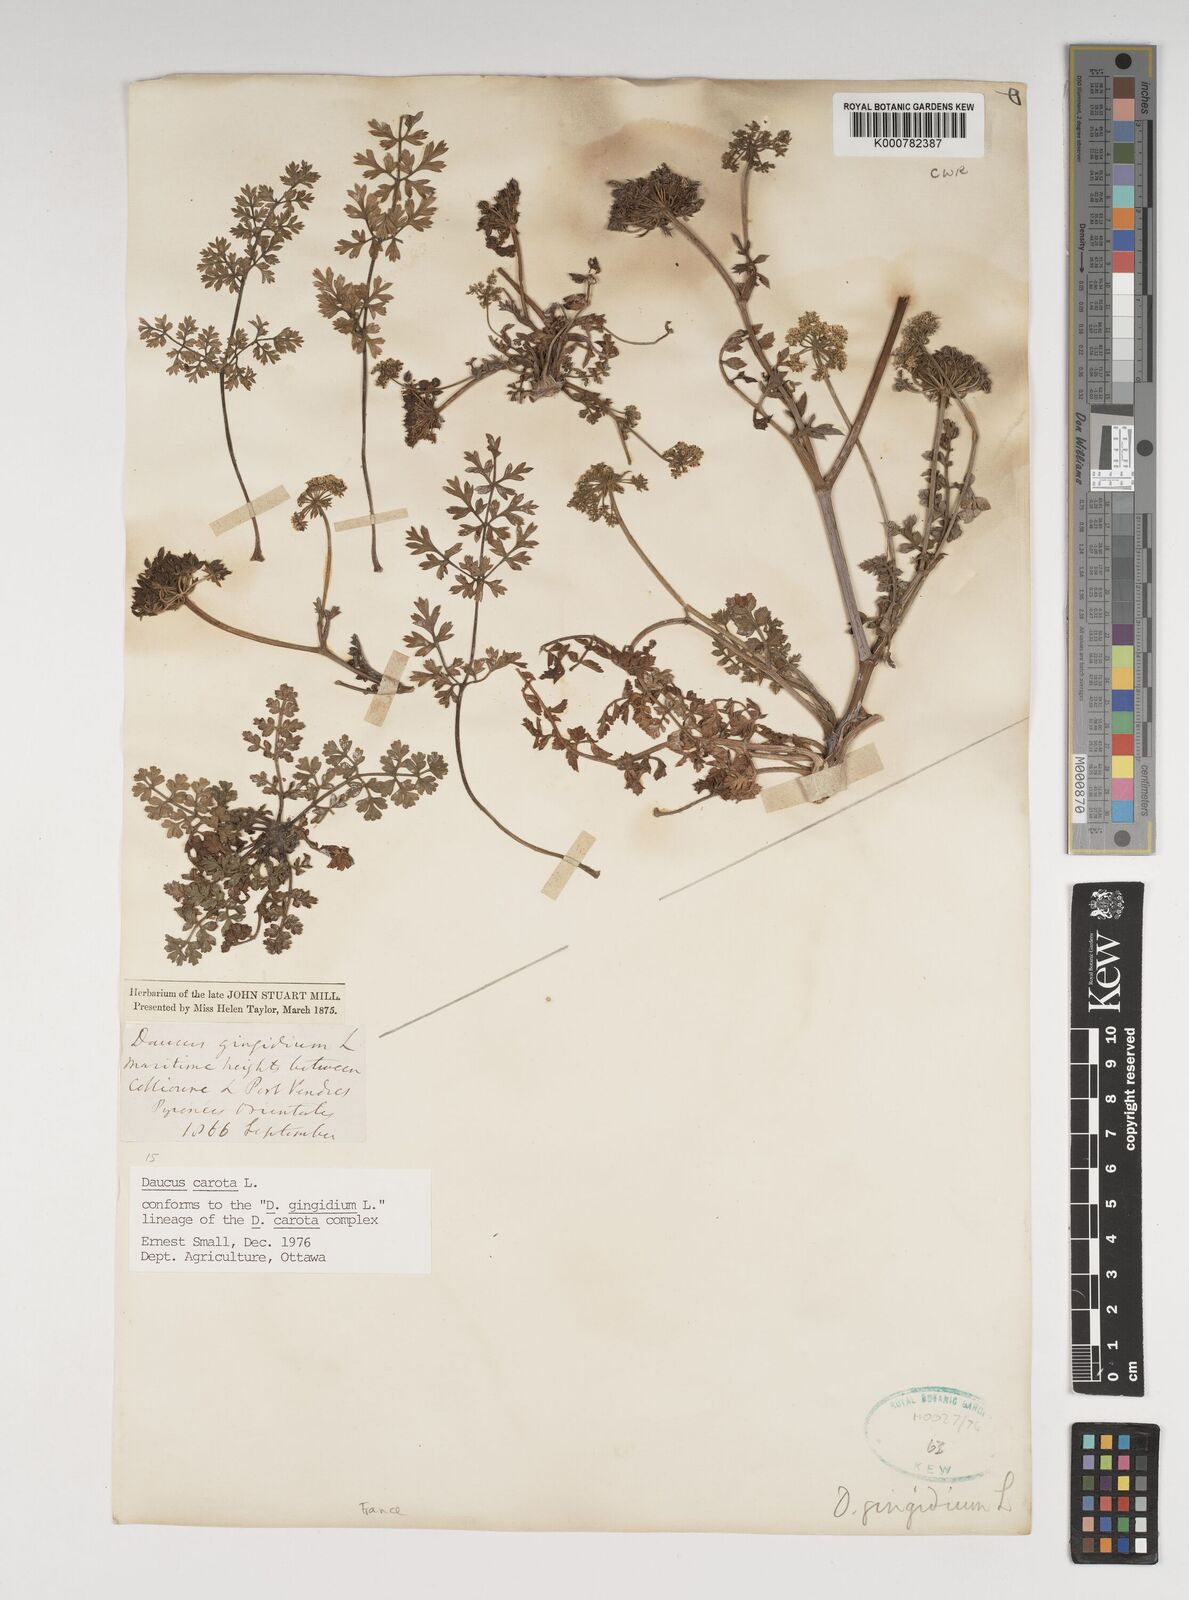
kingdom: Plantae
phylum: Tracheophyta
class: Magnoliopsida
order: Apiales
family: Apiaceae
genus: Daucus
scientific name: Daucus carota
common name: Wild carrot
